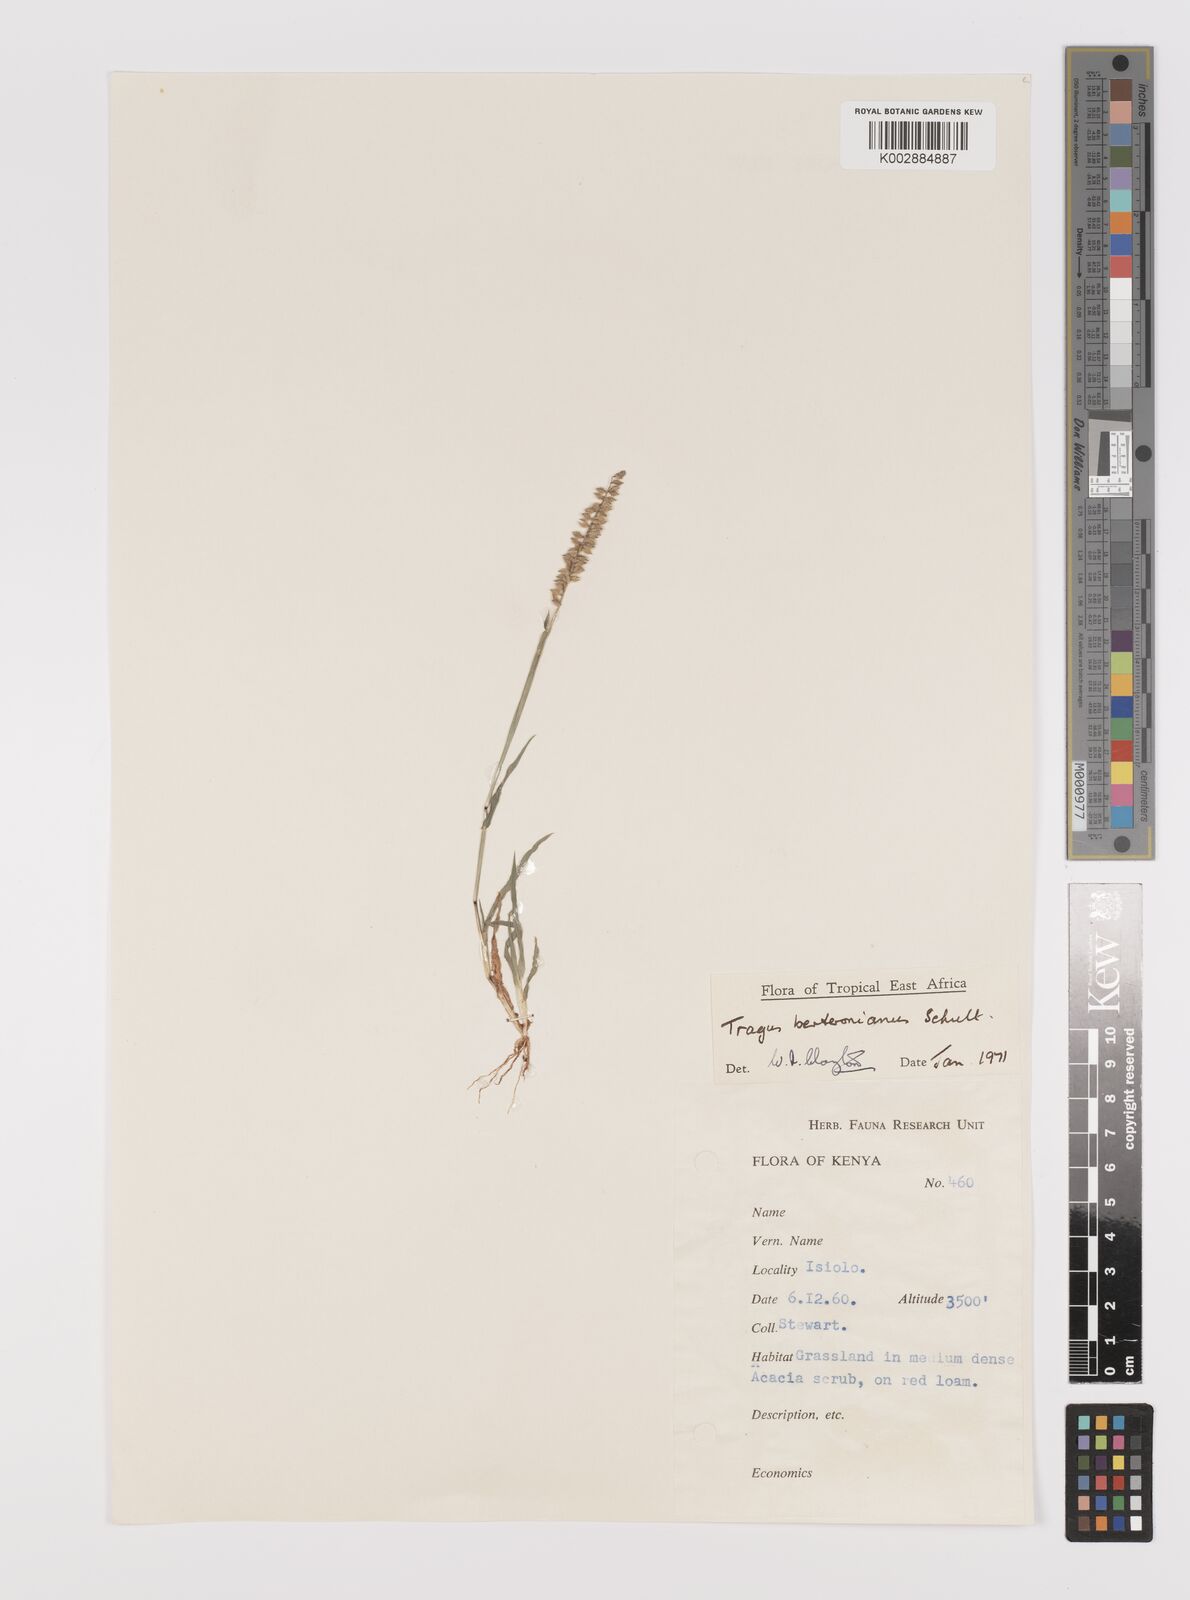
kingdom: Plantae
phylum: Tracheophyta
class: Liliopsida
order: Poales
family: Poaceae
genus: Tragus
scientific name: Tragus berteronianus
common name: African bur-grass
